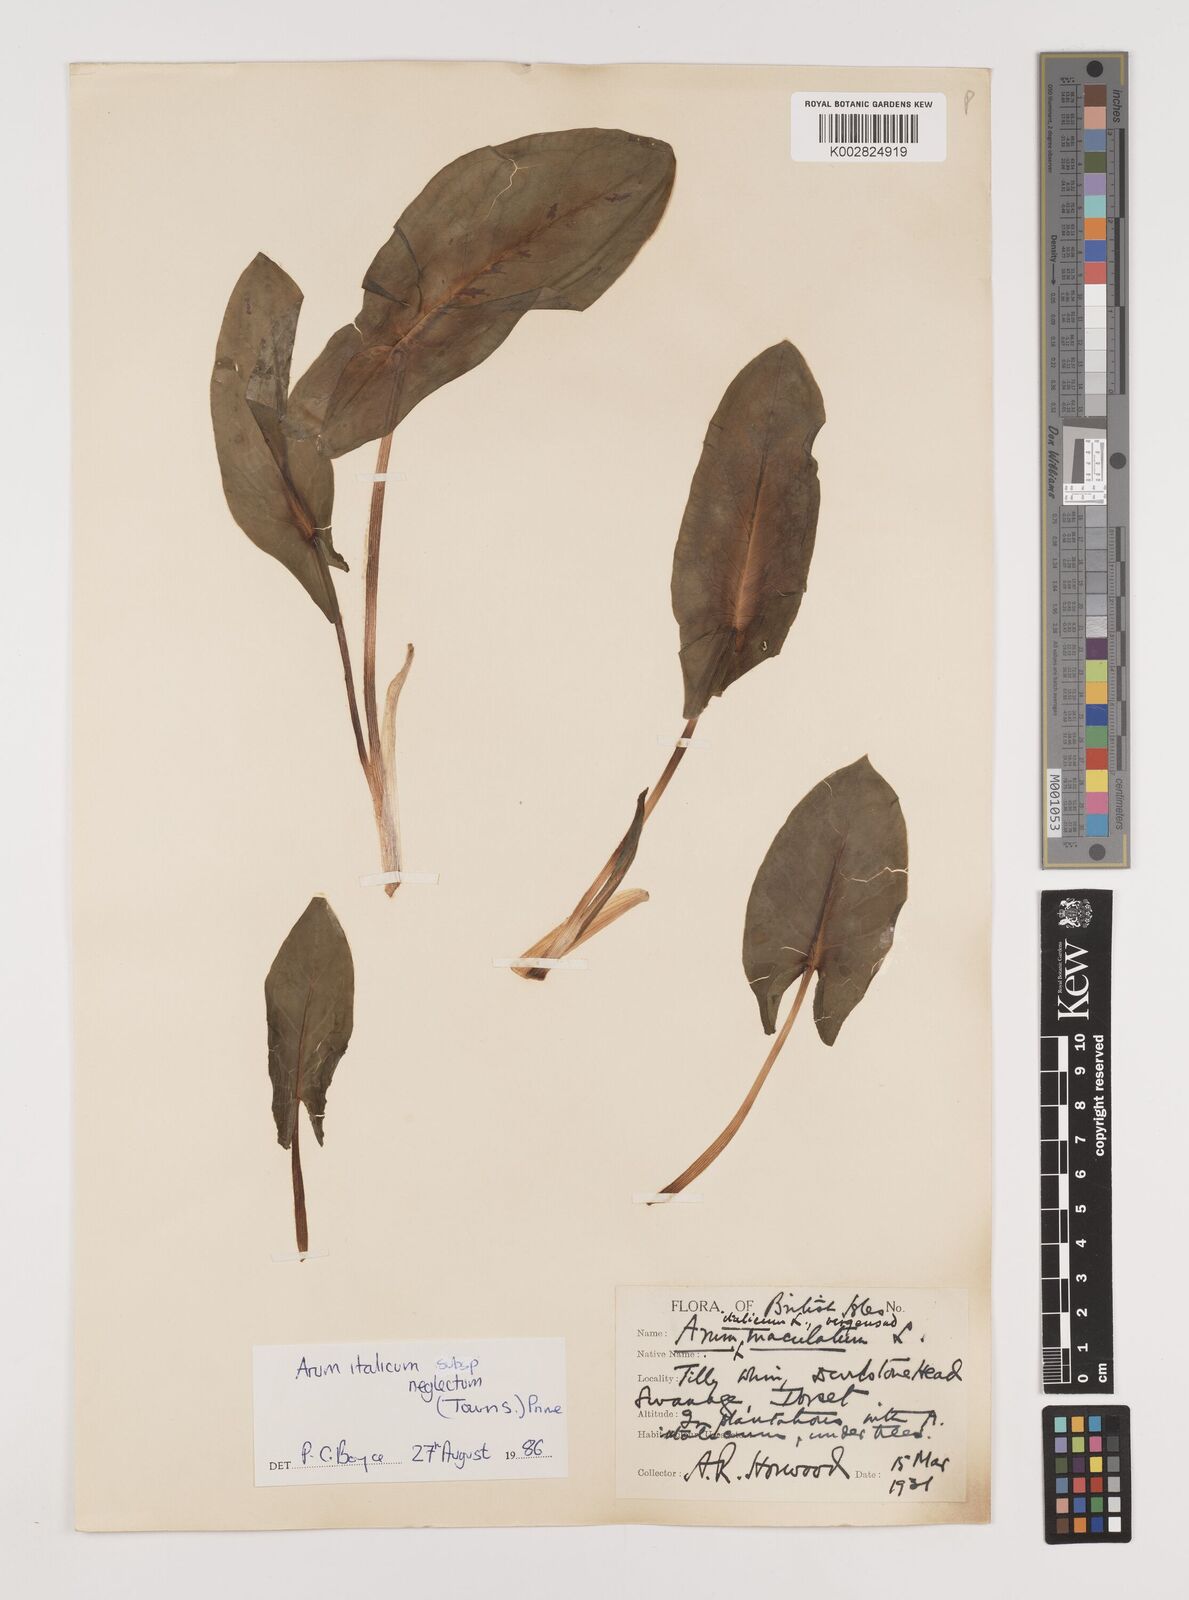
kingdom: Plantae
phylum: Tracheophyta
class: Liliopsida
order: Alismatales
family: Araceae
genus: Arum
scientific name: Arum italicum
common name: Italian lords-and-ladies
